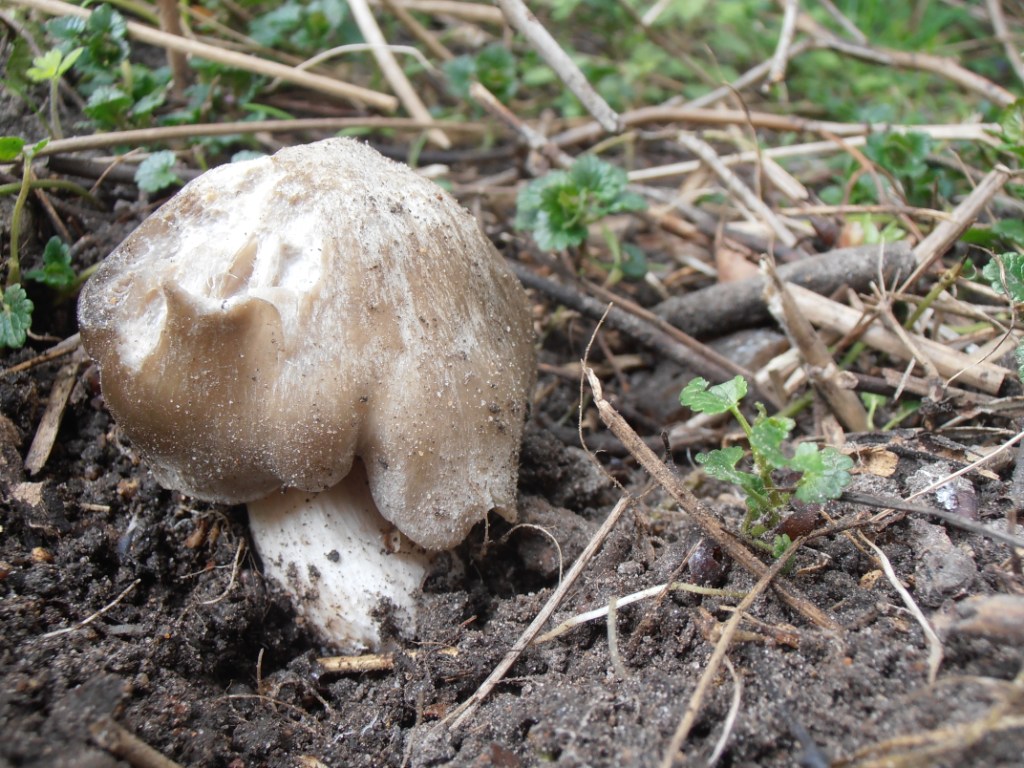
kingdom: Fungi
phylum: Basidiomycota
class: Agaricomycetes
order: Agaricales
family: Entolomataceae
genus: Entoloma
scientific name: Entoloma clypeatum
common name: flammet rødblad
